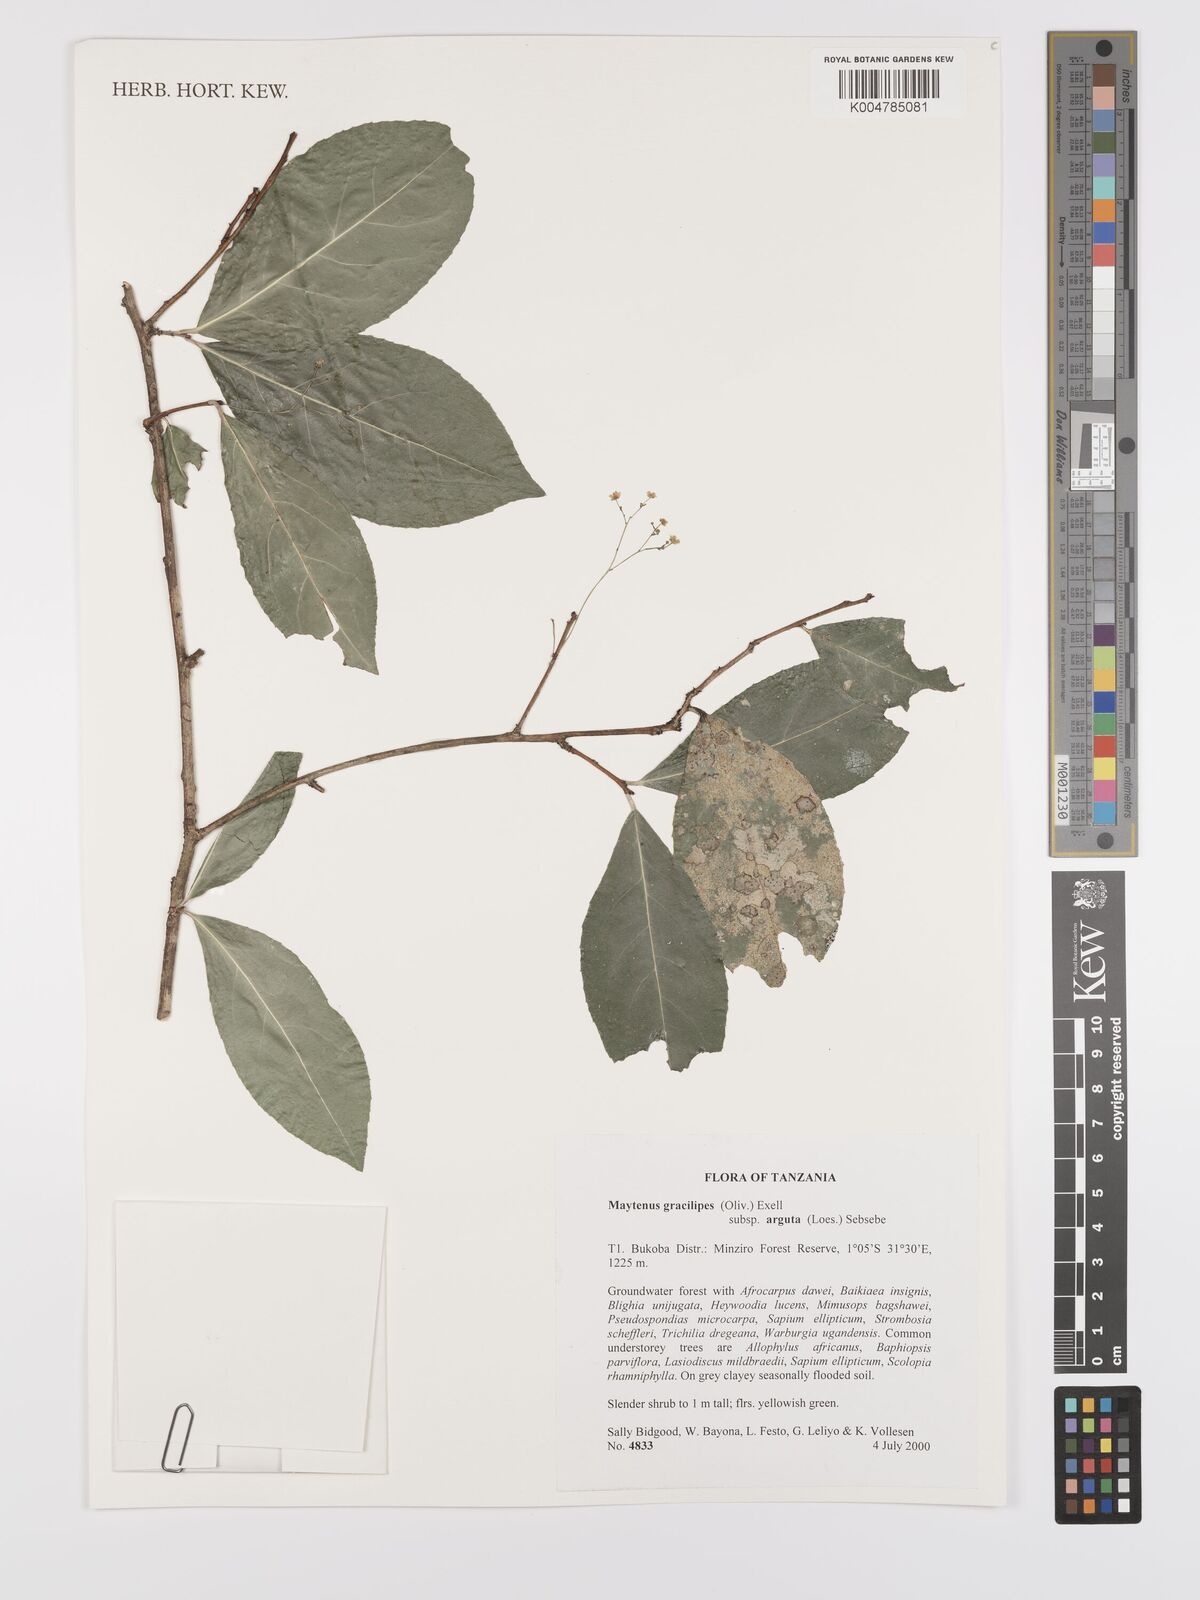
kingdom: Plantae
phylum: Tracheophyta
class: Magnoliopsida
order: Celastrales
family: Celastraceae
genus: Gymnosporia
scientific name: Gymnosporia gracilipes
